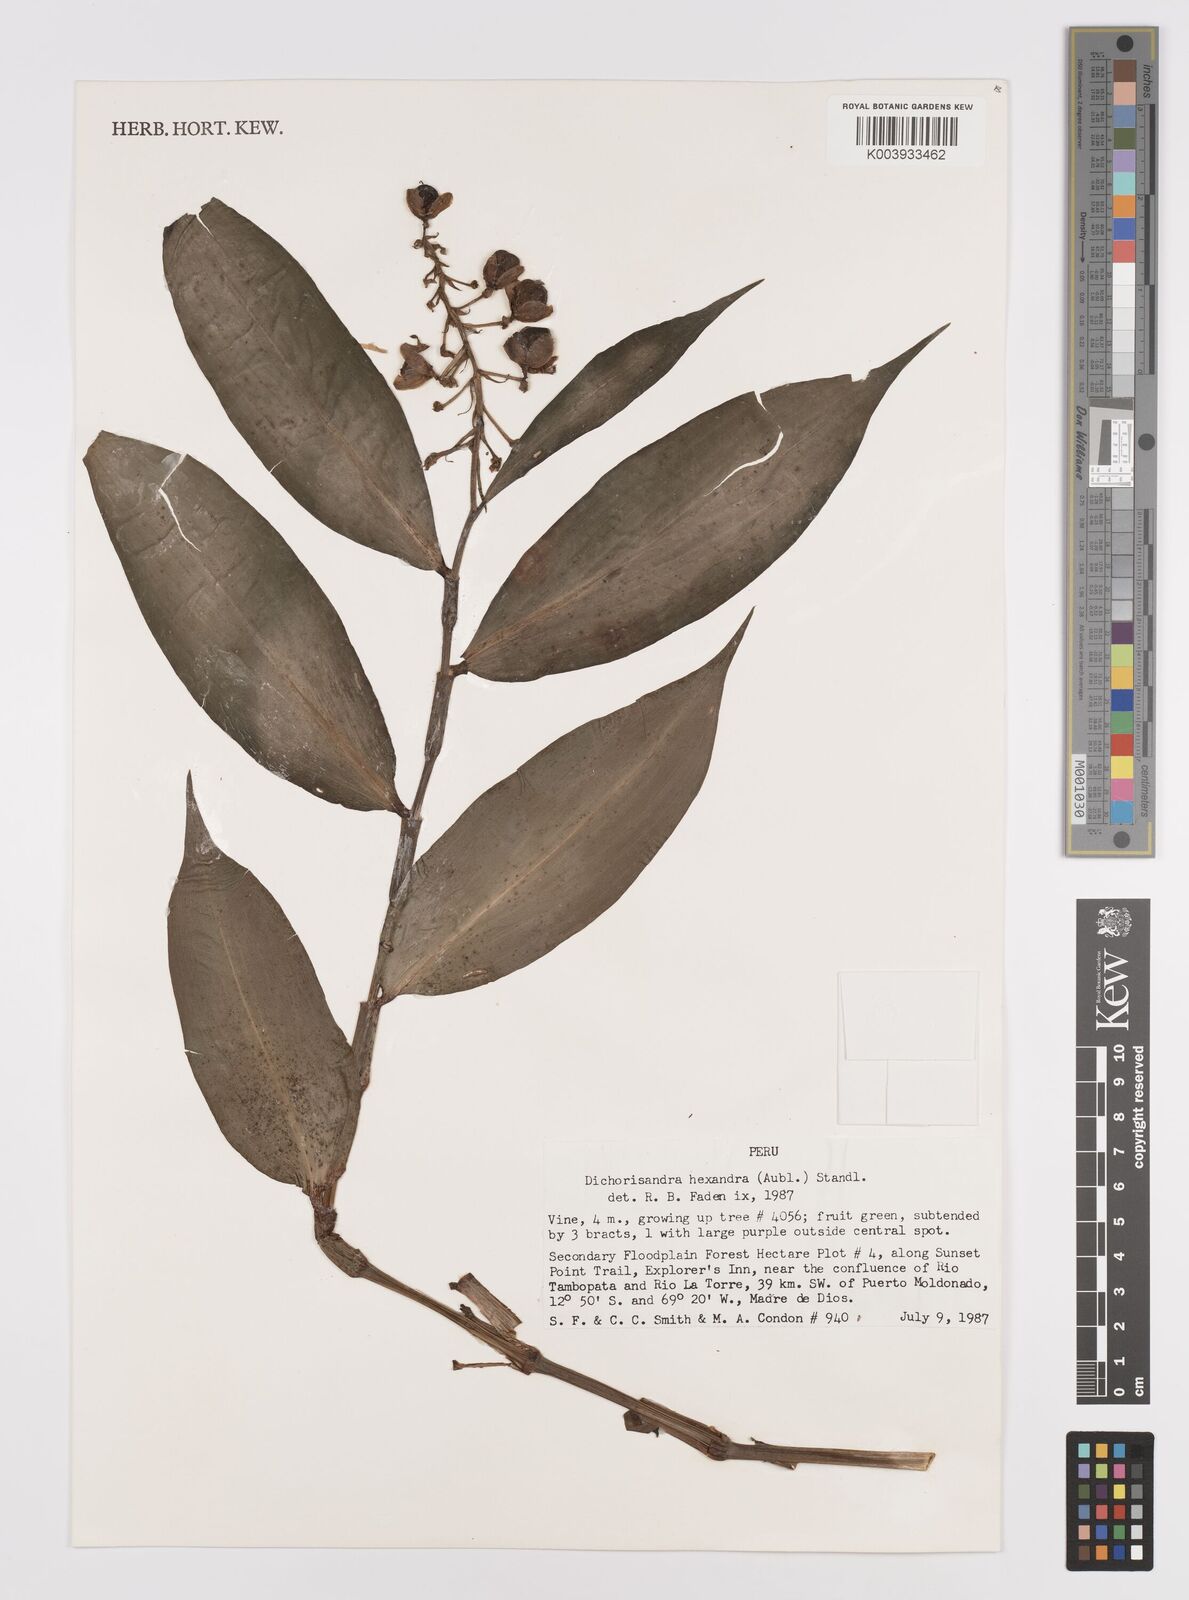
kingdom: Plantae
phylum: Tracheophyta
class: Liliopsida
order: Commelinales
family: Commelinaceae
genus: Dichorisandra
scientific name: Dichorisandra hexandra
